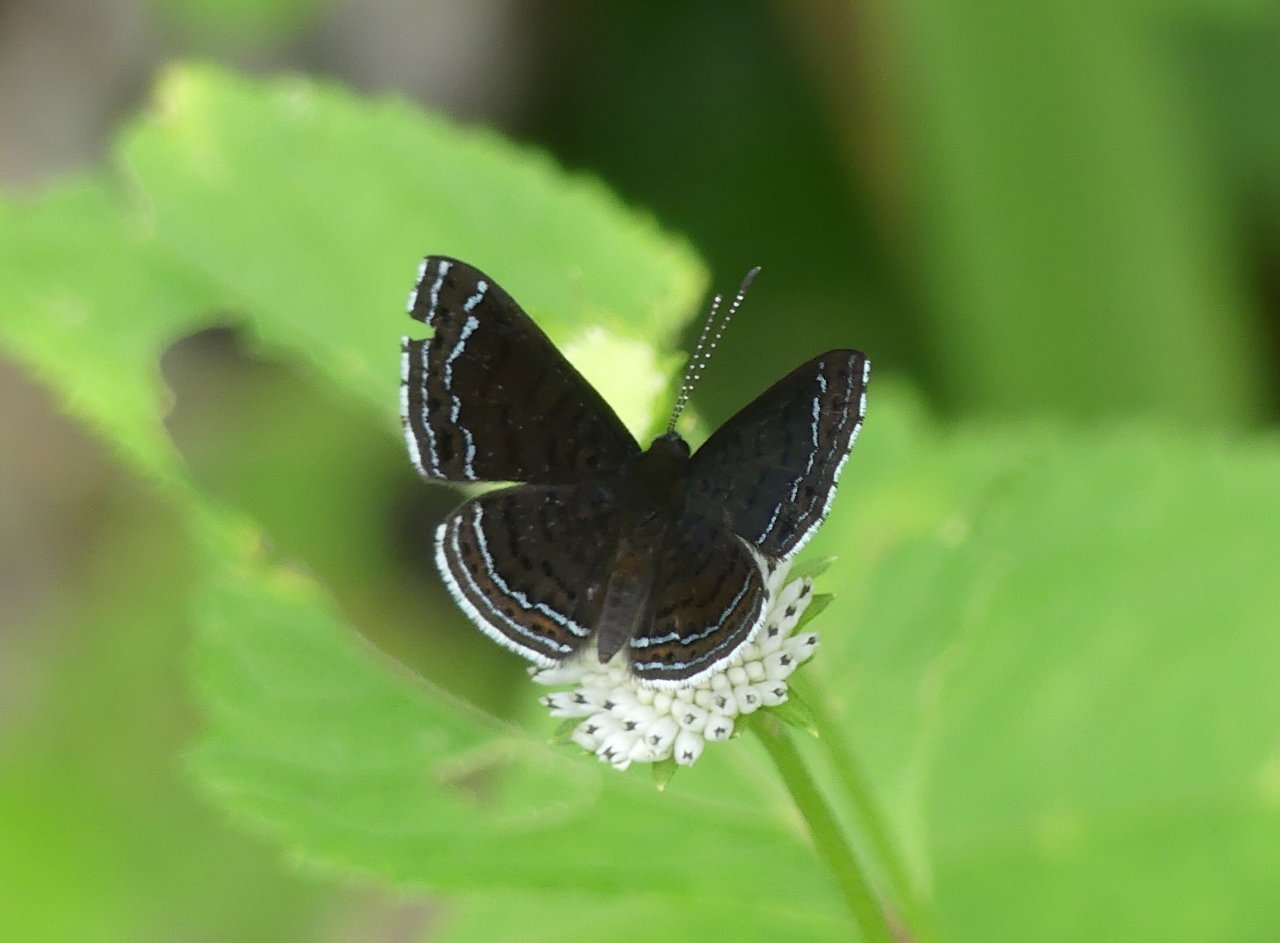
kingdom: Animalia
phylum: Arthropoda
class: Insecta
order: Lepidoptera
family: Lycaenidae
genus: Emesis
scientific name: Emesis irina
